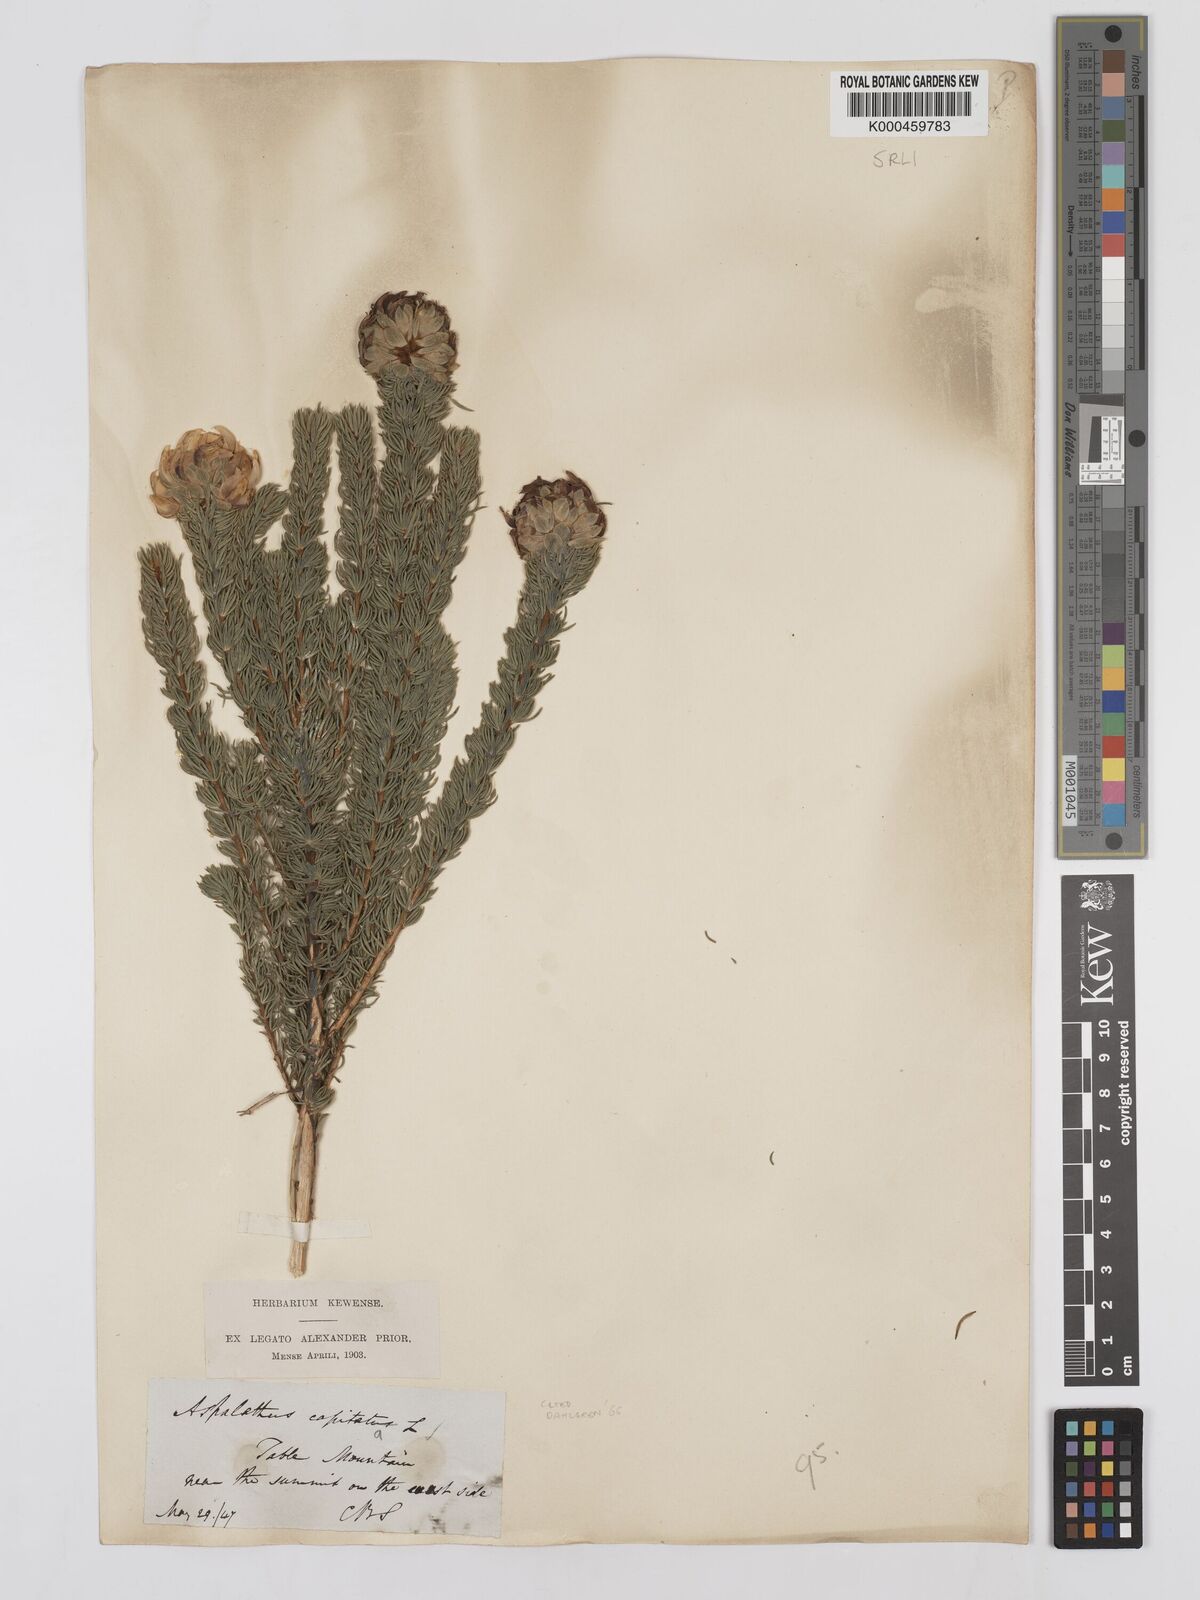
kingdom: Plantae
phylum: Tracheophyta
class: Magnoliopsida
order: Fabales
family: Fabaceae
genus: Aspalathus
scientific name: Aspalathus capitata
